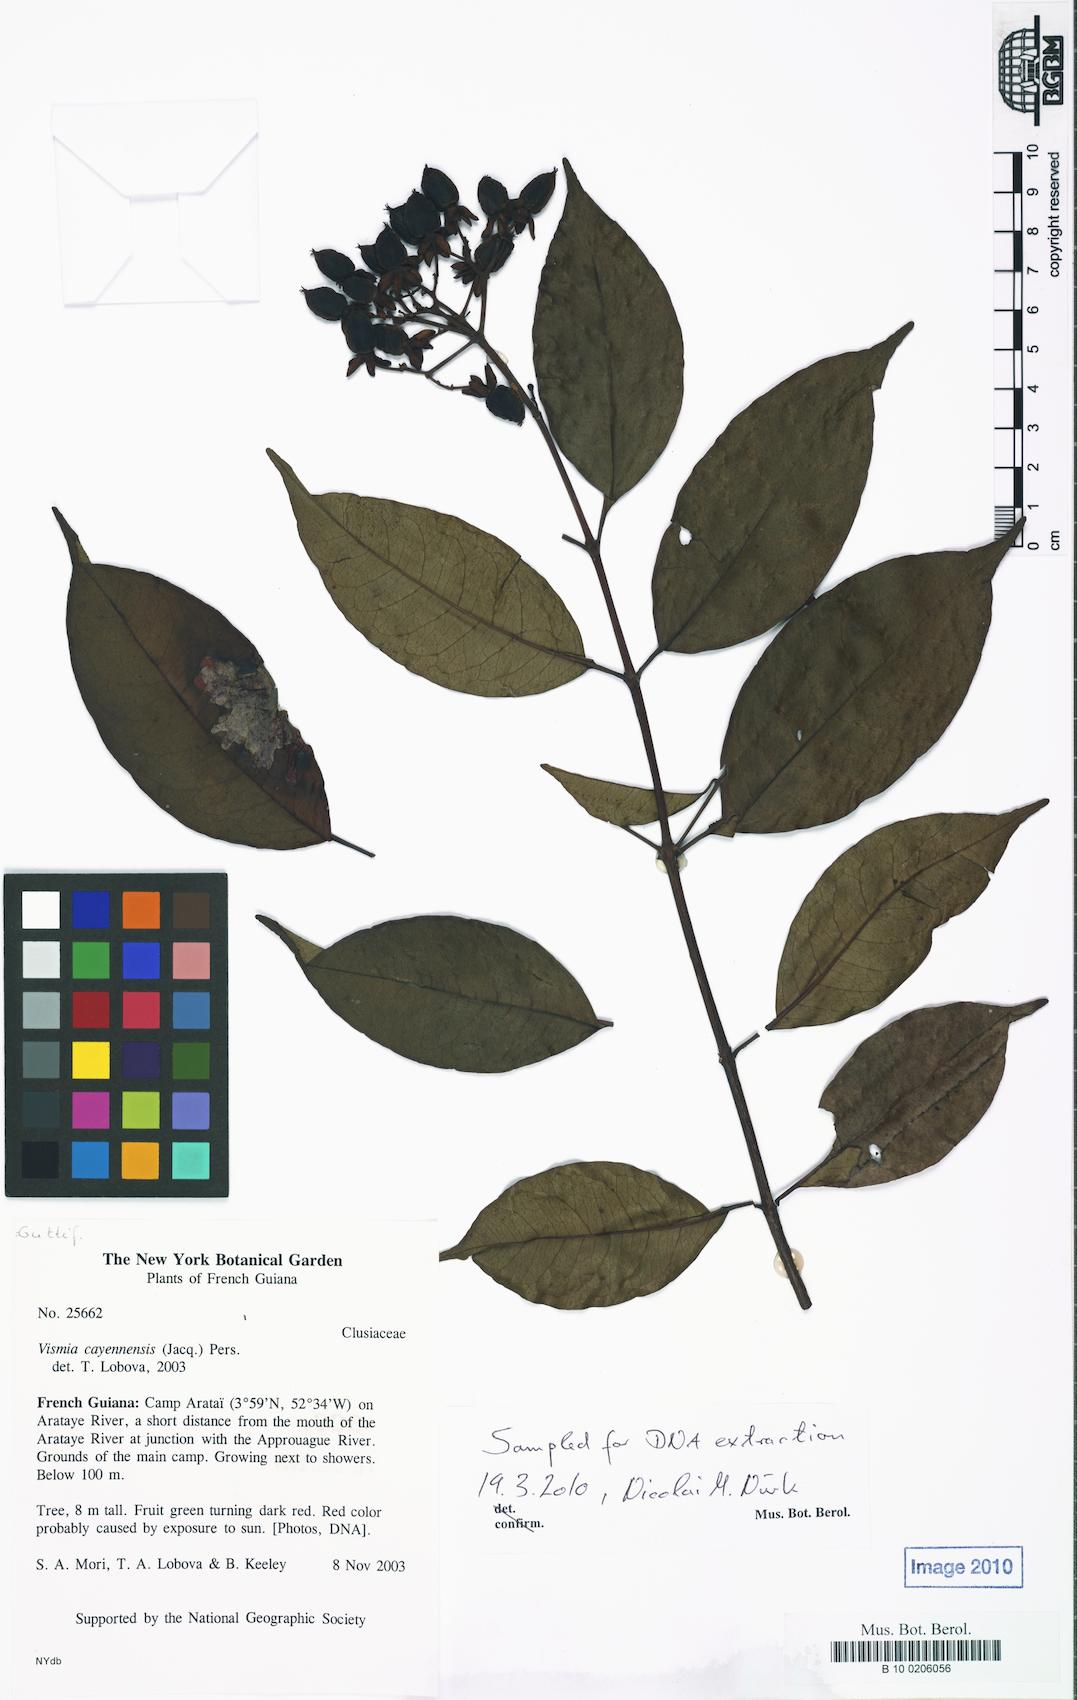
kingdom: Plantae
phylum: Tracheophyta
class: Magnoliopsida
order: Malpighiales
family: Hypericaceae
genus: Vismia
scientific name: Vismia cayennensis
